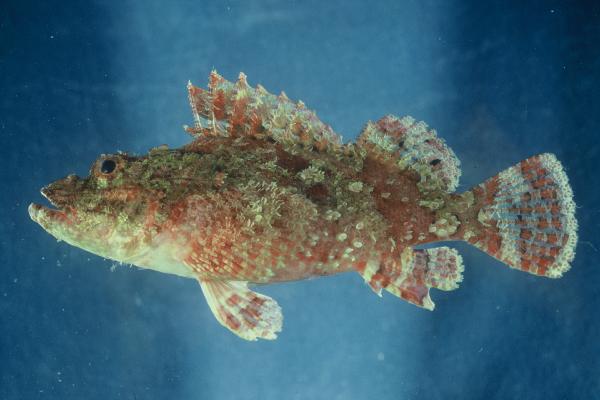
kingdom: Animalia
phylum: Chordata
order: Scorpaeniformes
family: Scorpaenidae
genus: Scorpaenopsis
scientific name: Scorpaenopsis venosa
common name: Raggy scorpionfish
